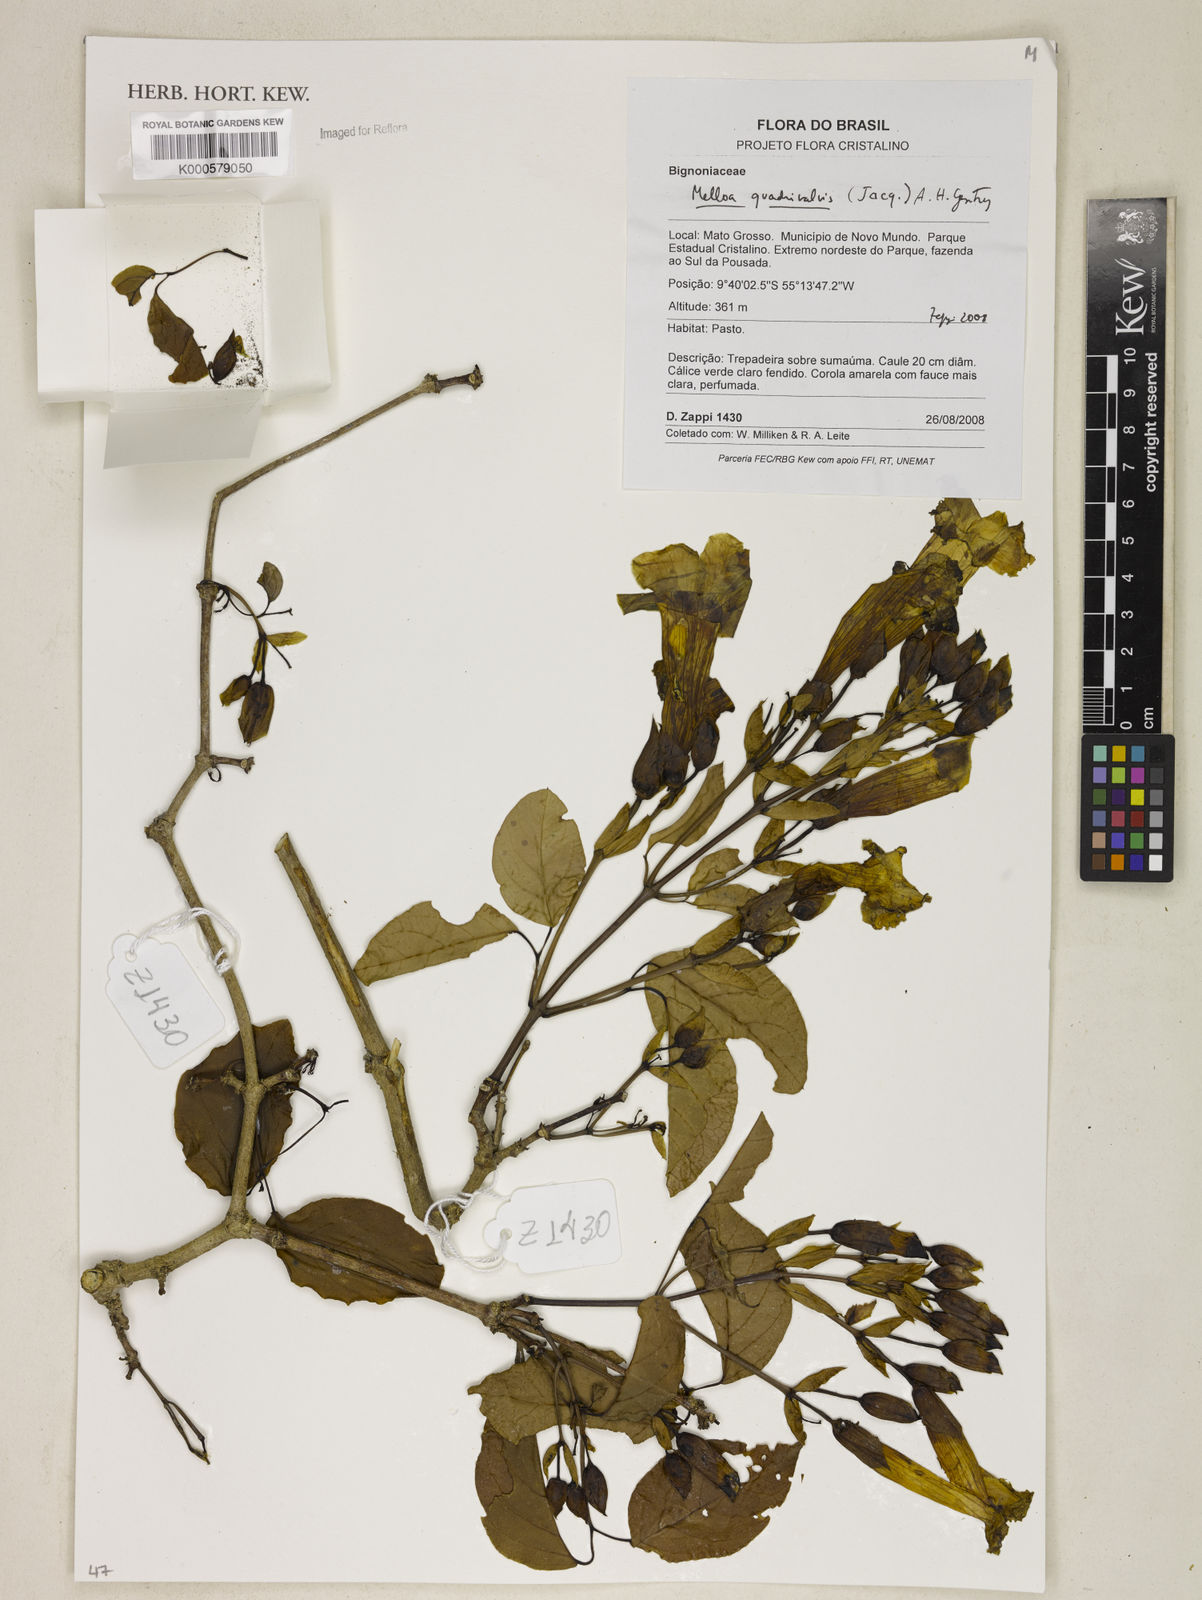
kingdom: Plantae
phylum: Tracheophyta
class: Magnoliopsida
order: Lamiales
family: Bignoniaceae
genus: Dolichandra
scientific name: Dolichandra quadrivalvis
